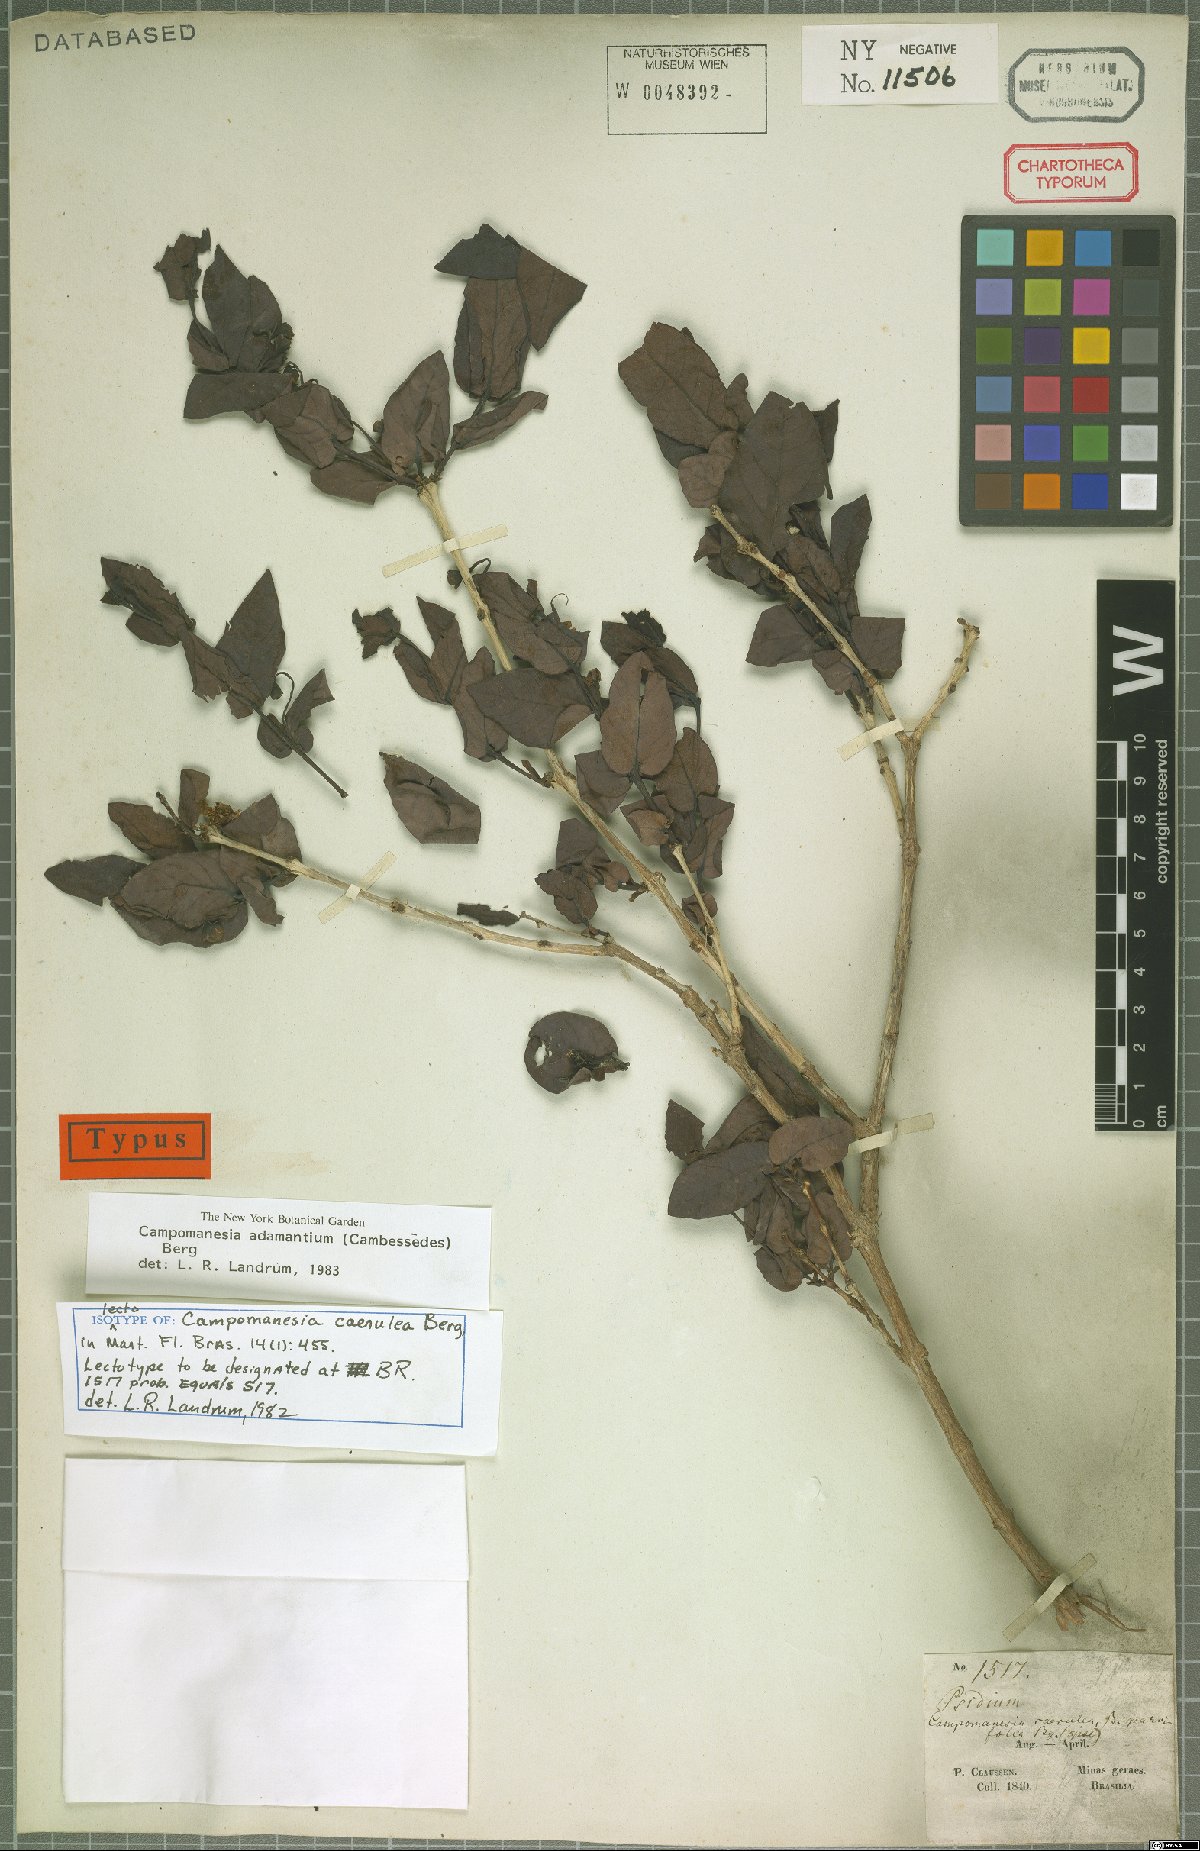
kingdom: Plantae
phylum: Tracheophyta
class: Magnoliopsida
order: Myrtales
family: Myrtaceae
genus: Campomanesia
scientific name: Campomanesia adamantium
